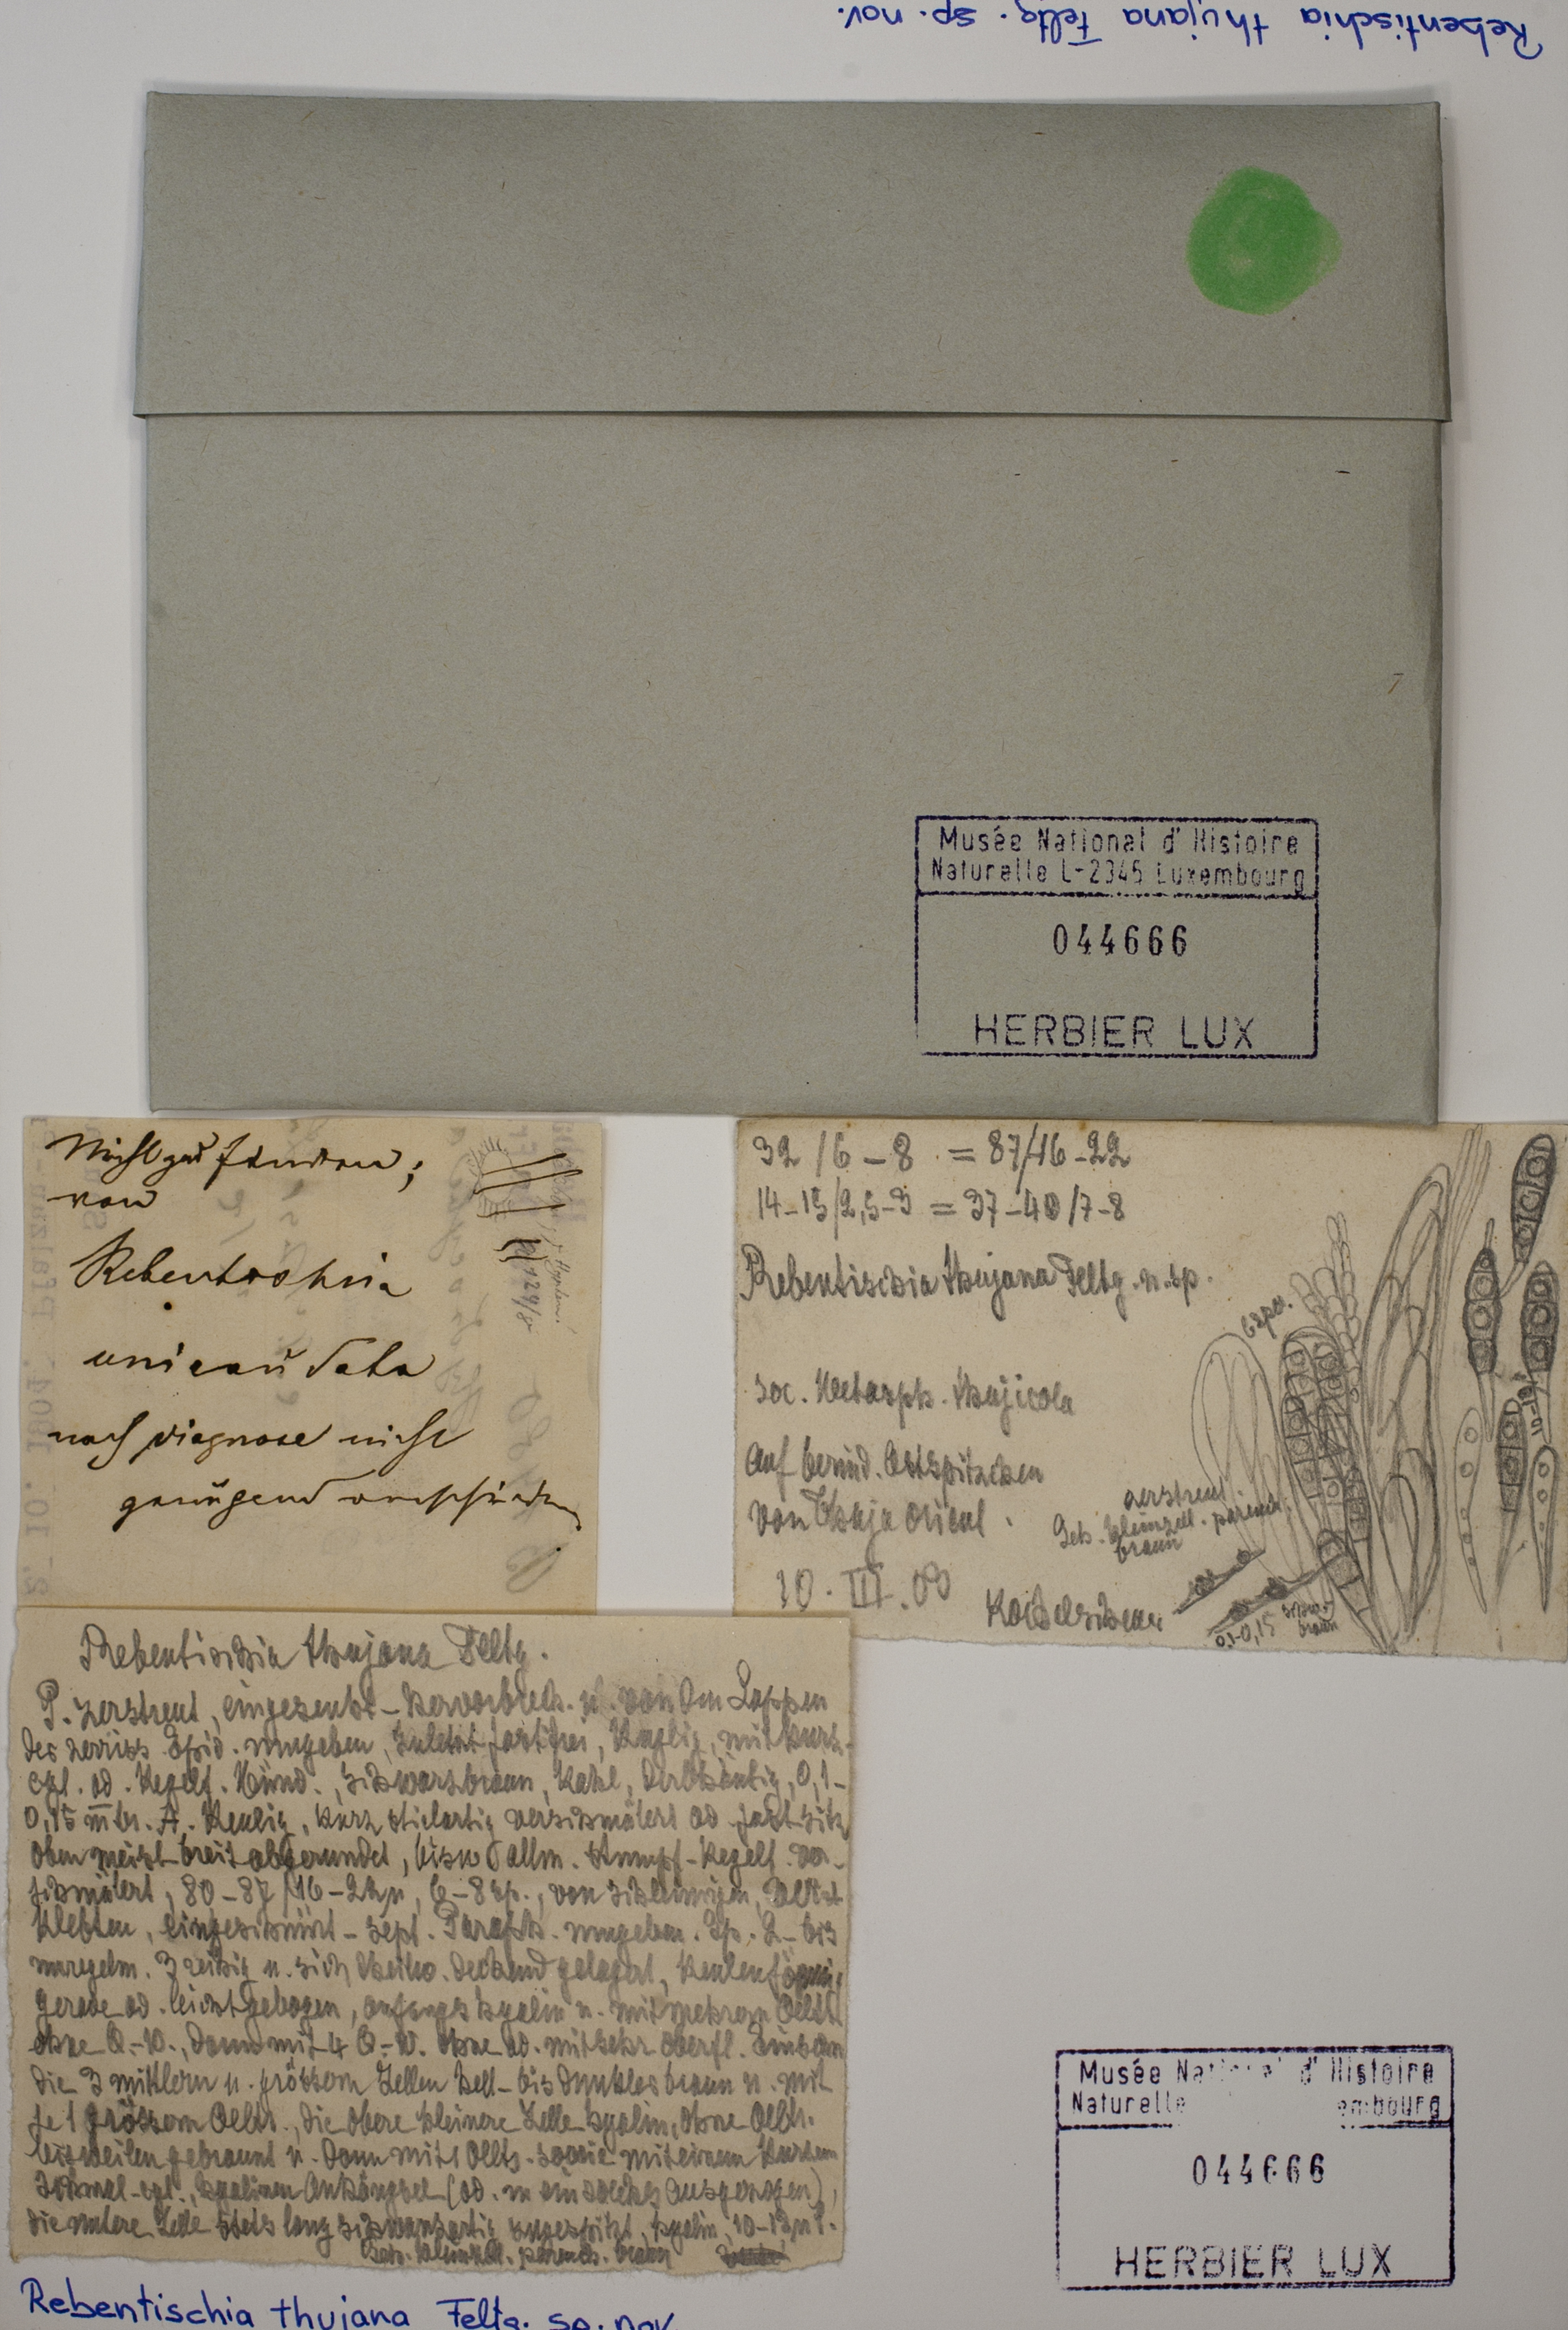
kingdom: Fungi
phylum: Ascomycota
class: Dothideomycetes
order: Tubeufiales
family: Tubeufiaceae
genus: Rebentischia
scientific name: Rebentischia thujana
